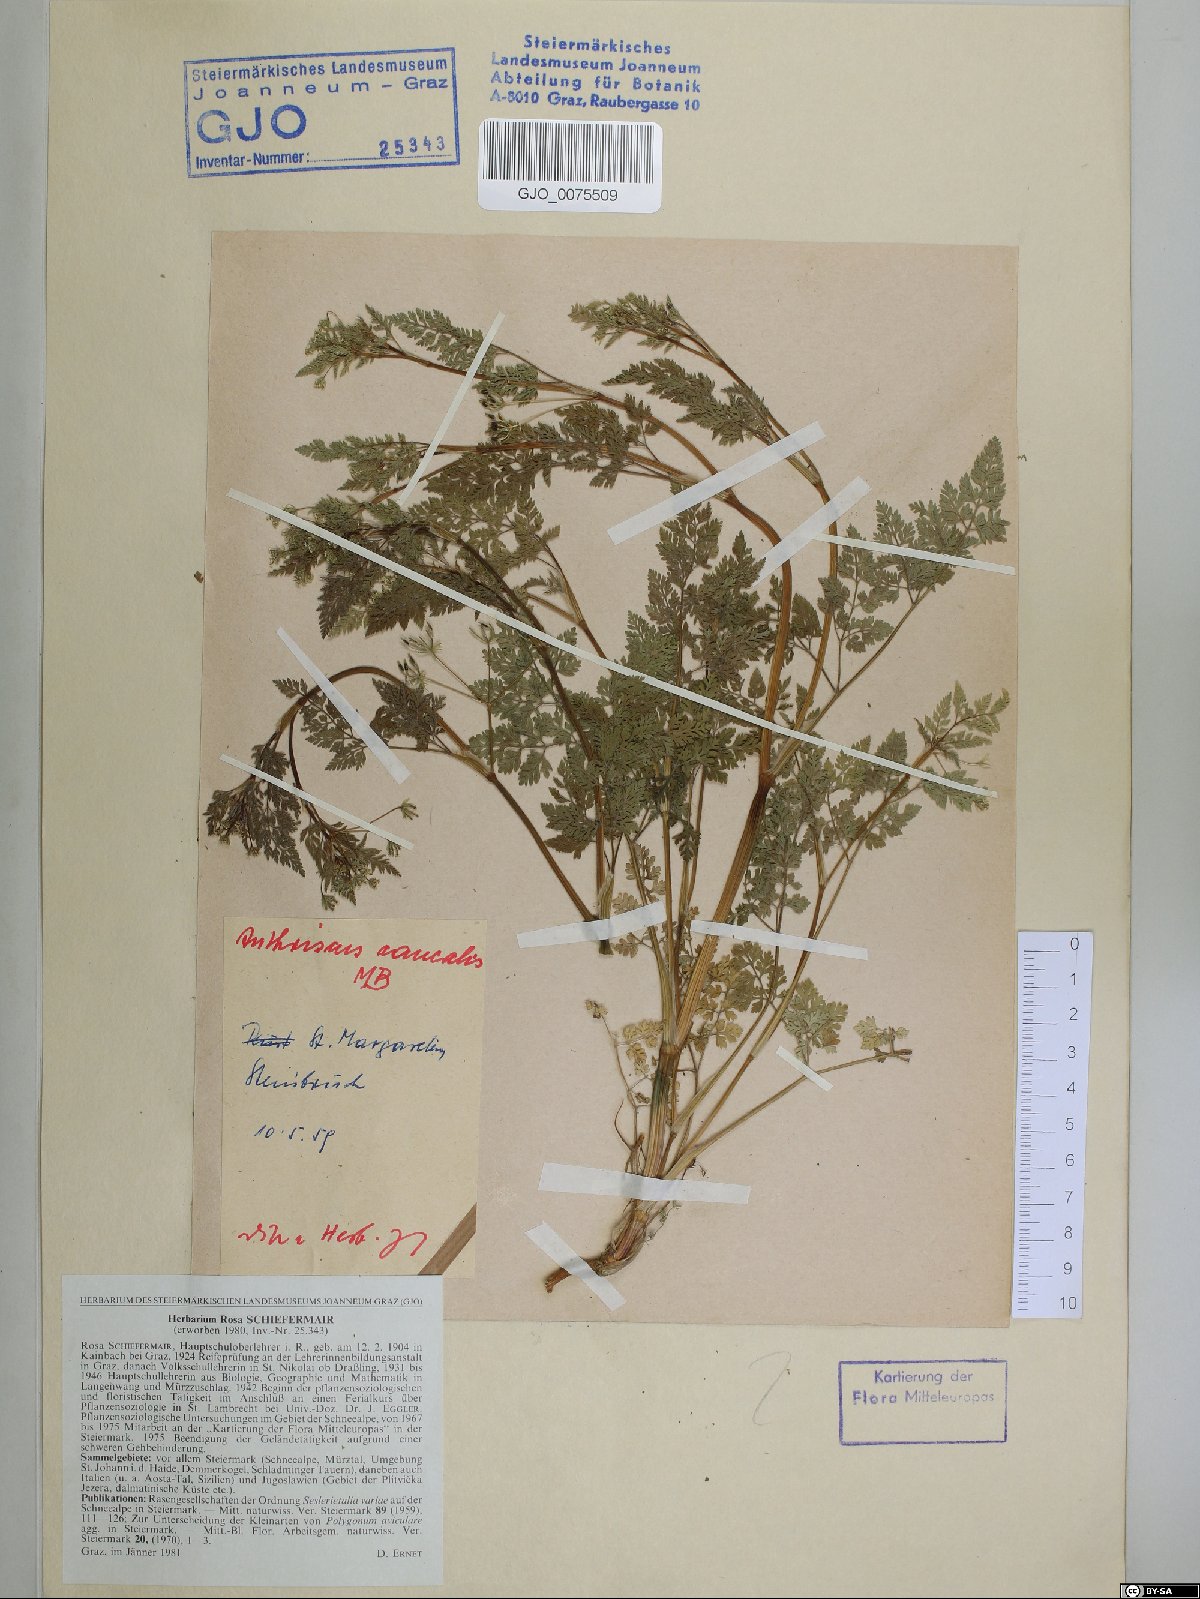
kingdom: Plantae
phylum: Tracheophyta
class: Magnoliopsida
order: Apiales
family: Apiaceae
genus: Anthriscus
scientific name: Anthriscus caucalis
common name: Bur chervil
